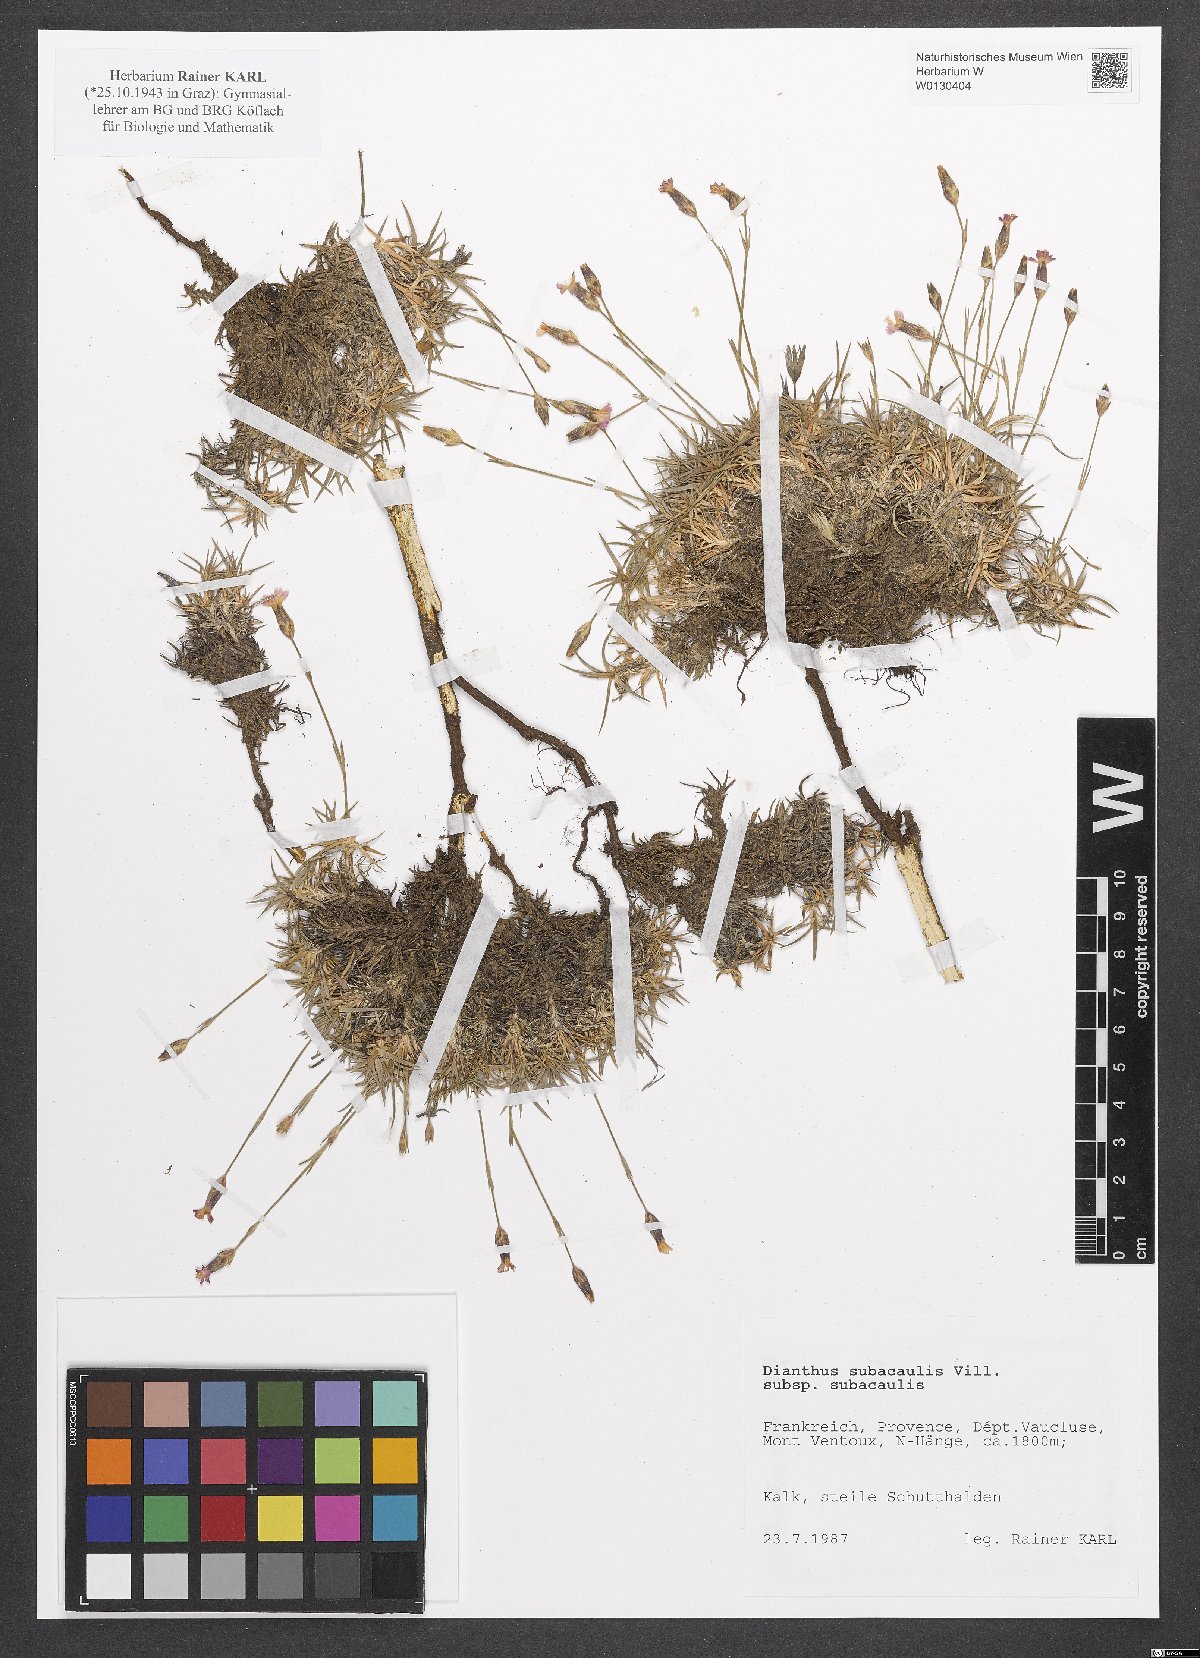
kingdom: Plantae
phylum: Tracheophyta
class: Magnoliopsida
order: Caryophyllales
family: Caryophyllaceae
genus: Dianthus
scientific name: Dianthus subacaulis
